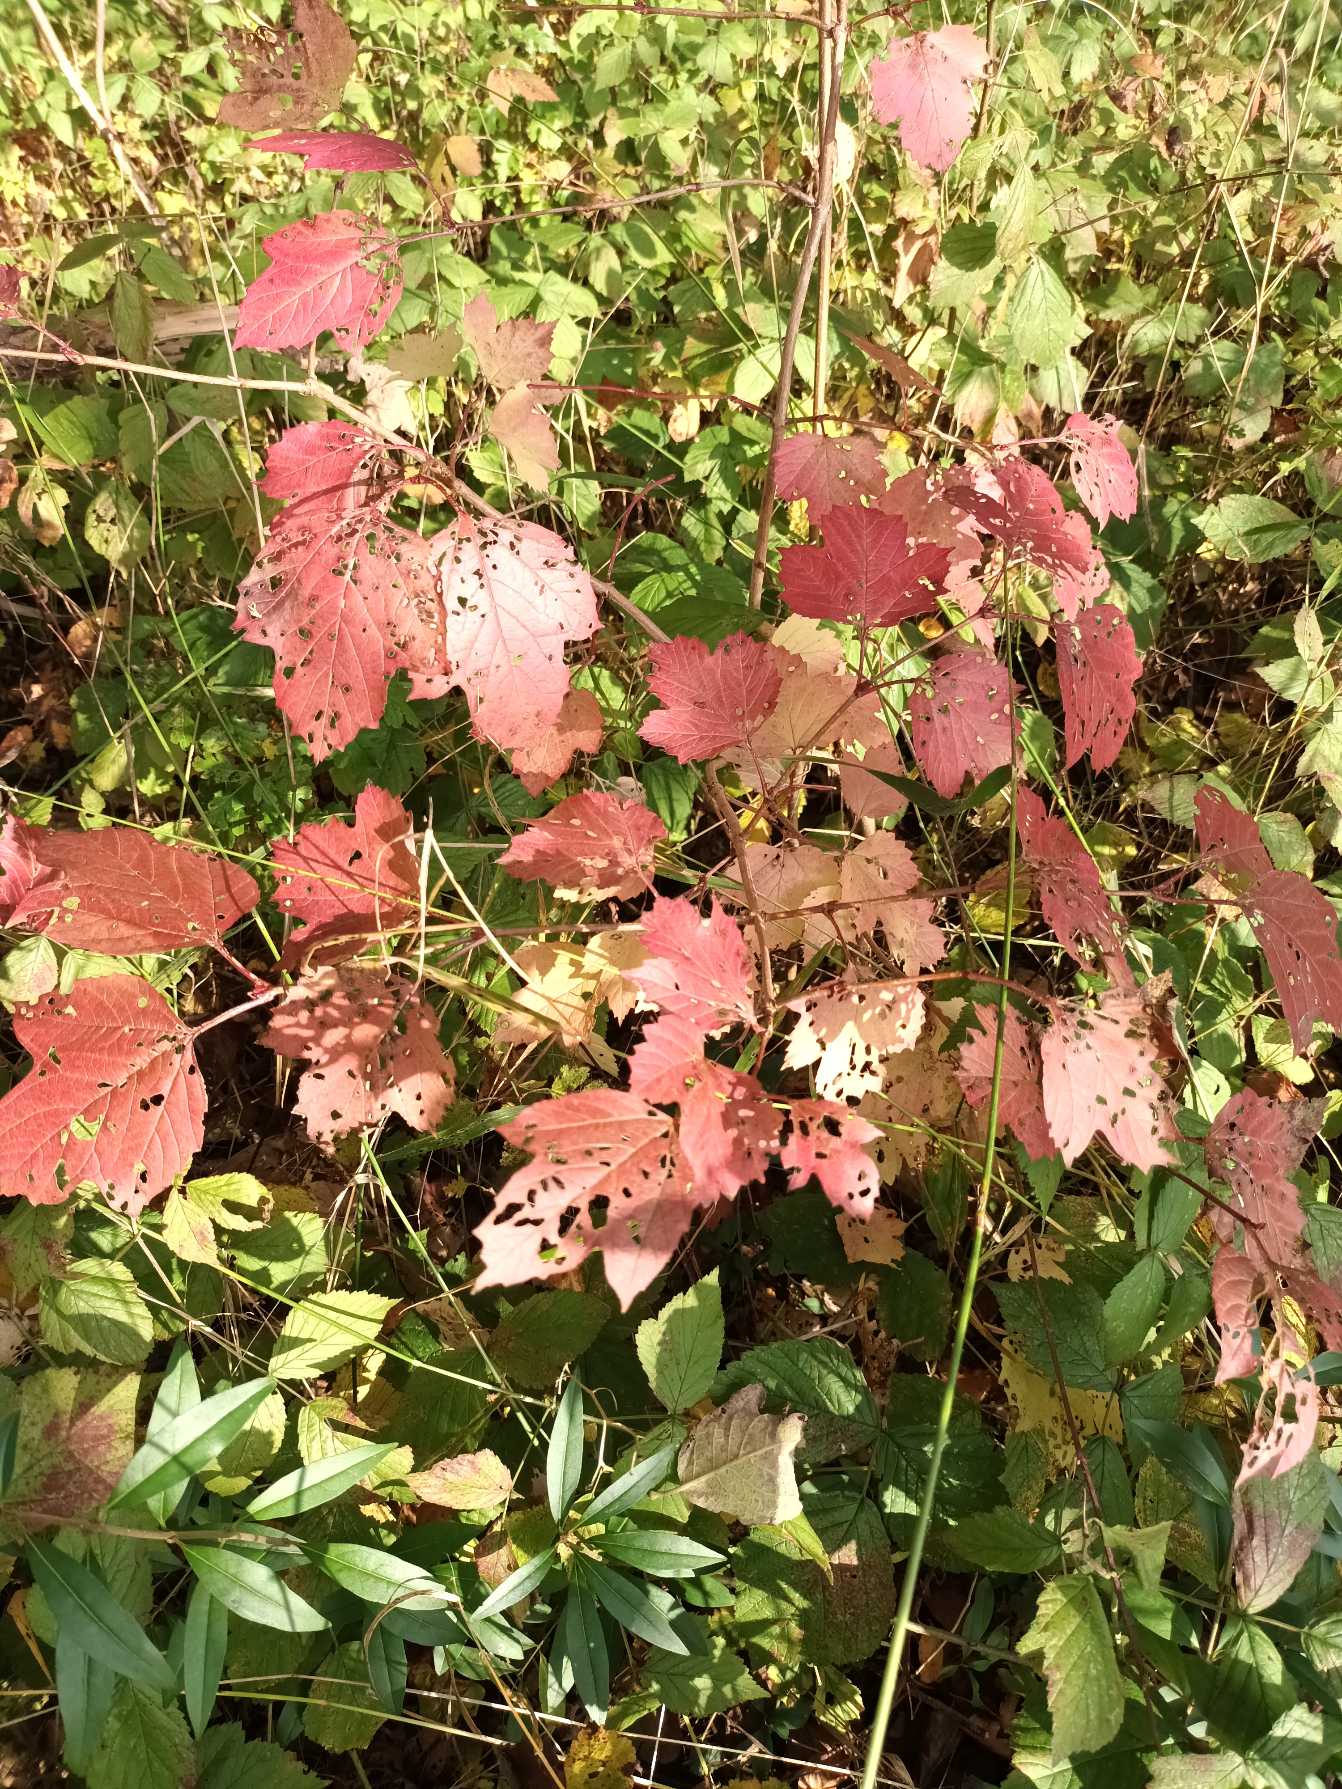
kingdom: Plantae
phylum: Tracheophyta
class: Magnoliopsida
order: Dipsacales
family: Viburnaceae
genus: Viburnum
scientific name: Viburnum opulus
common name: Kvalkved
